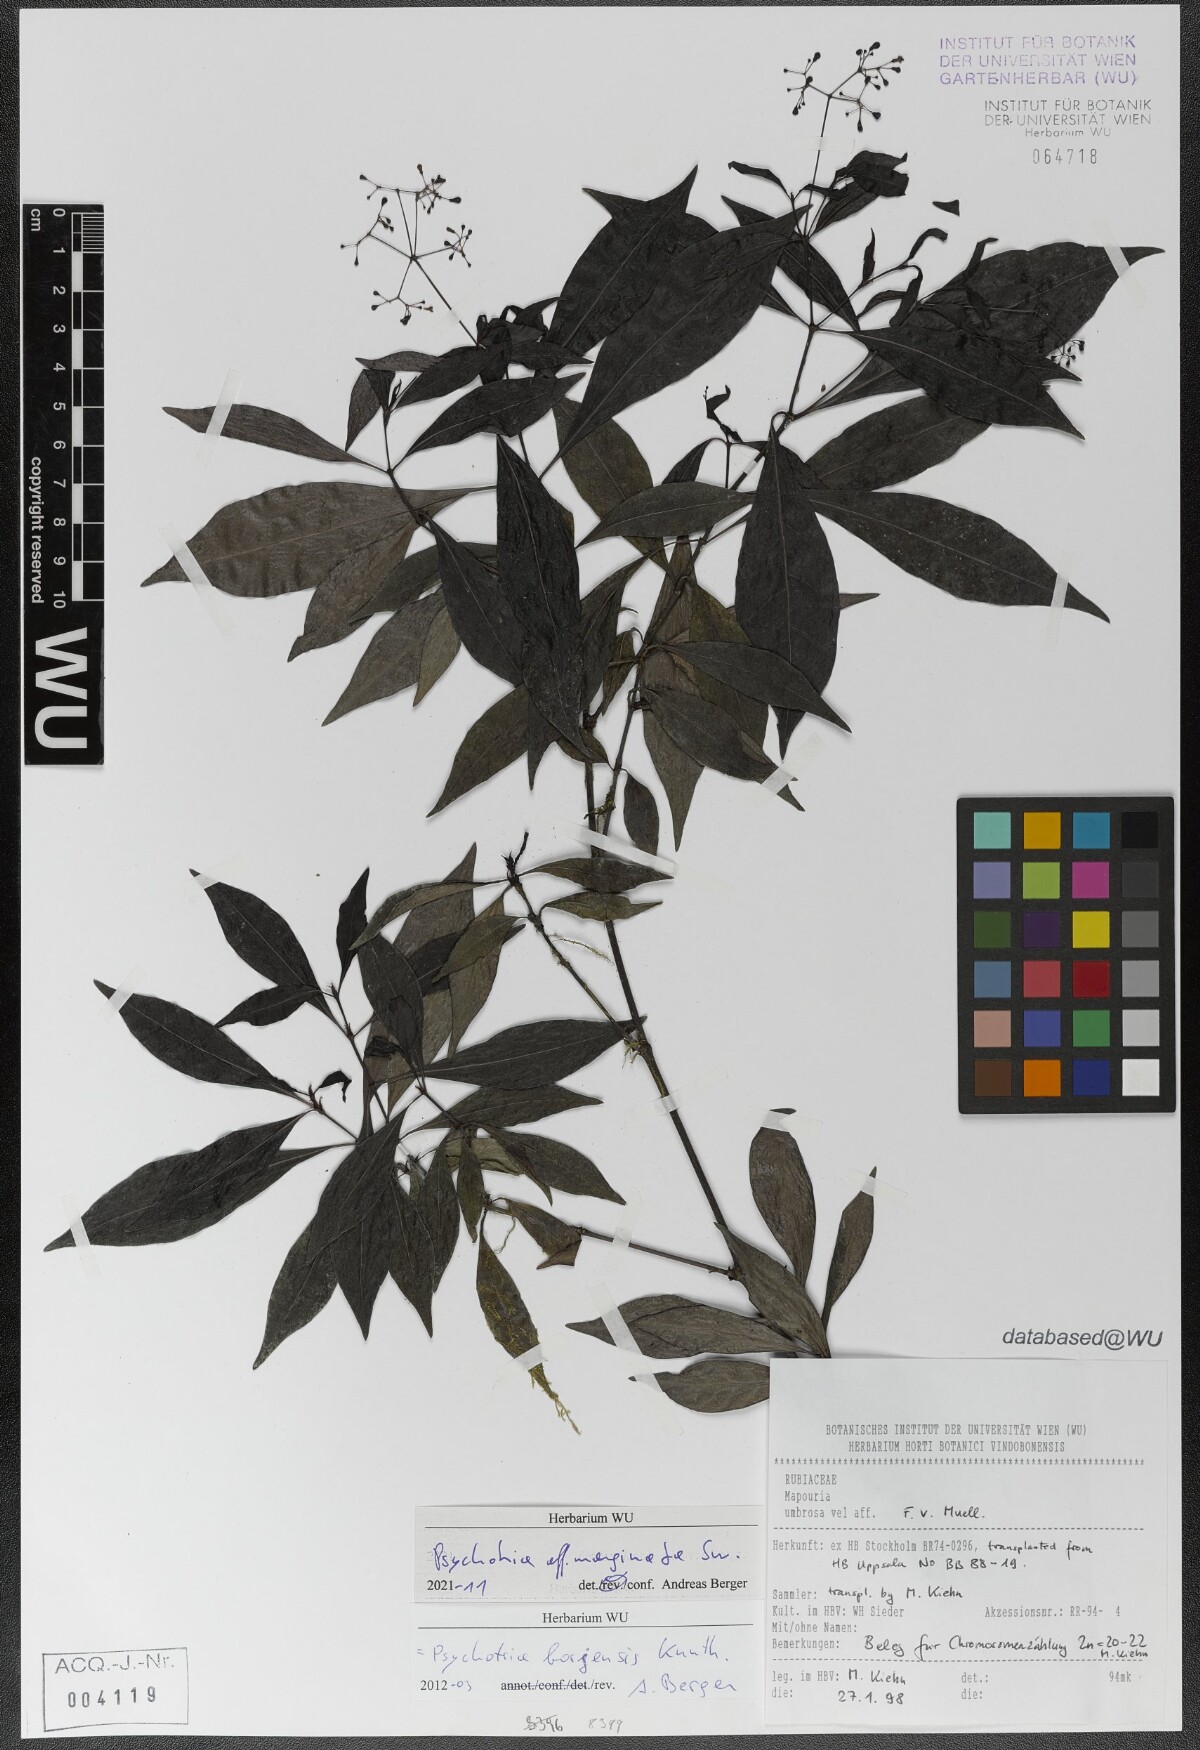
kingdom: Plantae
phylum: Tracheophyta
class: Magnoliopsida
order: Gentianales
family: Rubiaceae
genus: Psychotria
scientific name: Psychotria marginata
